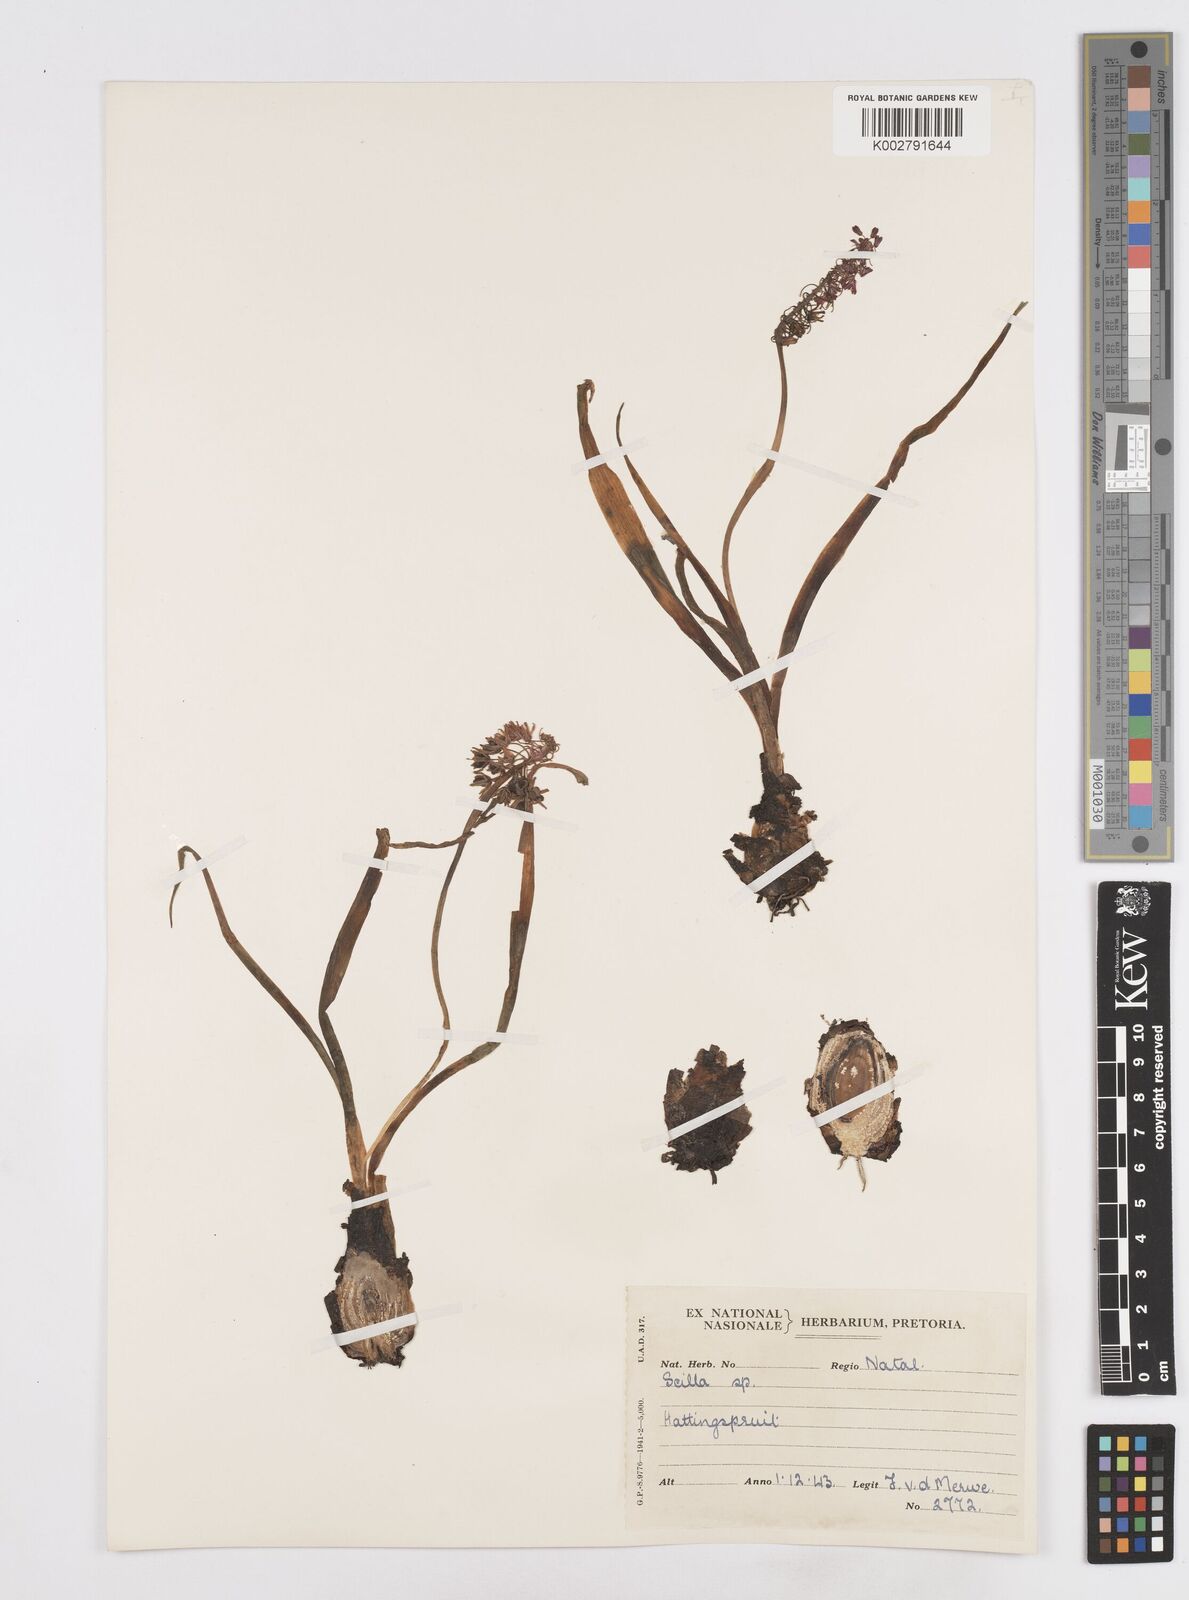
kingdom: Plantae
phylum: Tracheophyta
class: Liliopsida
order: Asparagales
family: Asparagaceae
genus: Scilla
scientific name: Scilla
